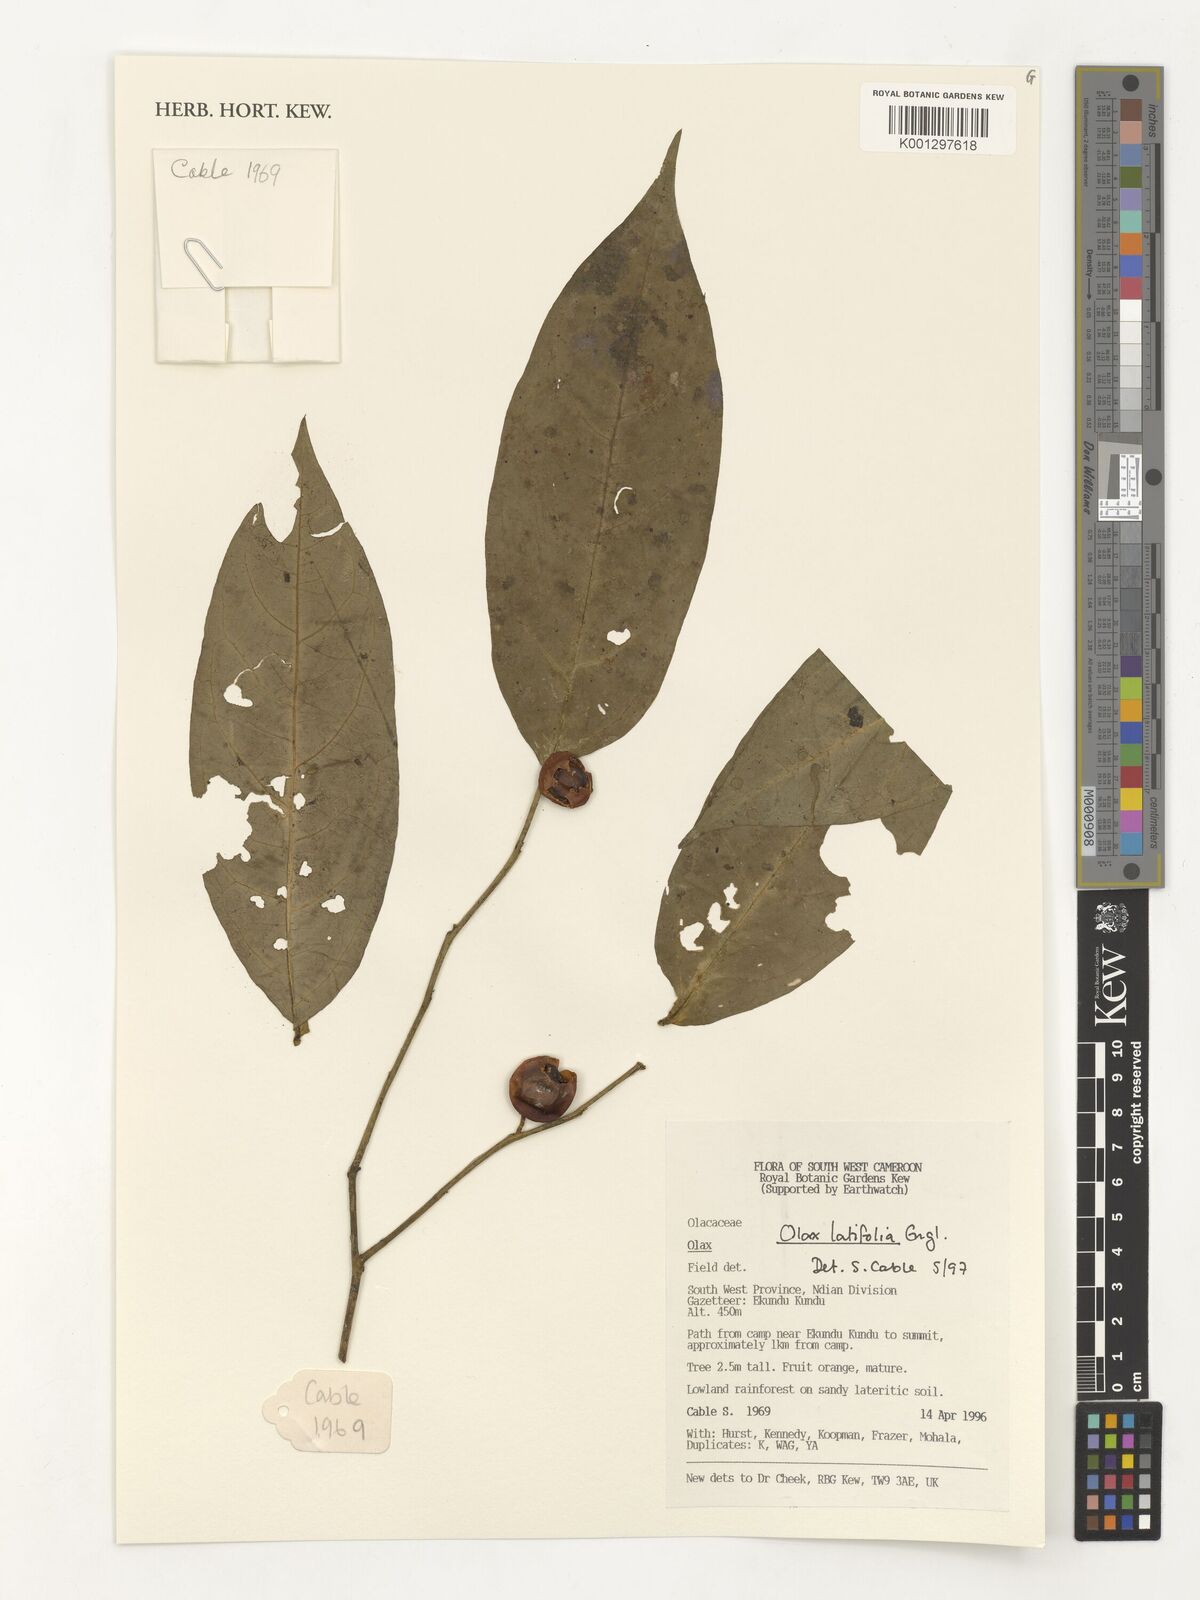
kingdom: Plantae
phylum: Tracheophyta
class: Magnoliopsida
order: Santalales
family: Olacaceae
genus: Olax
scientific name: Olax latifolia
